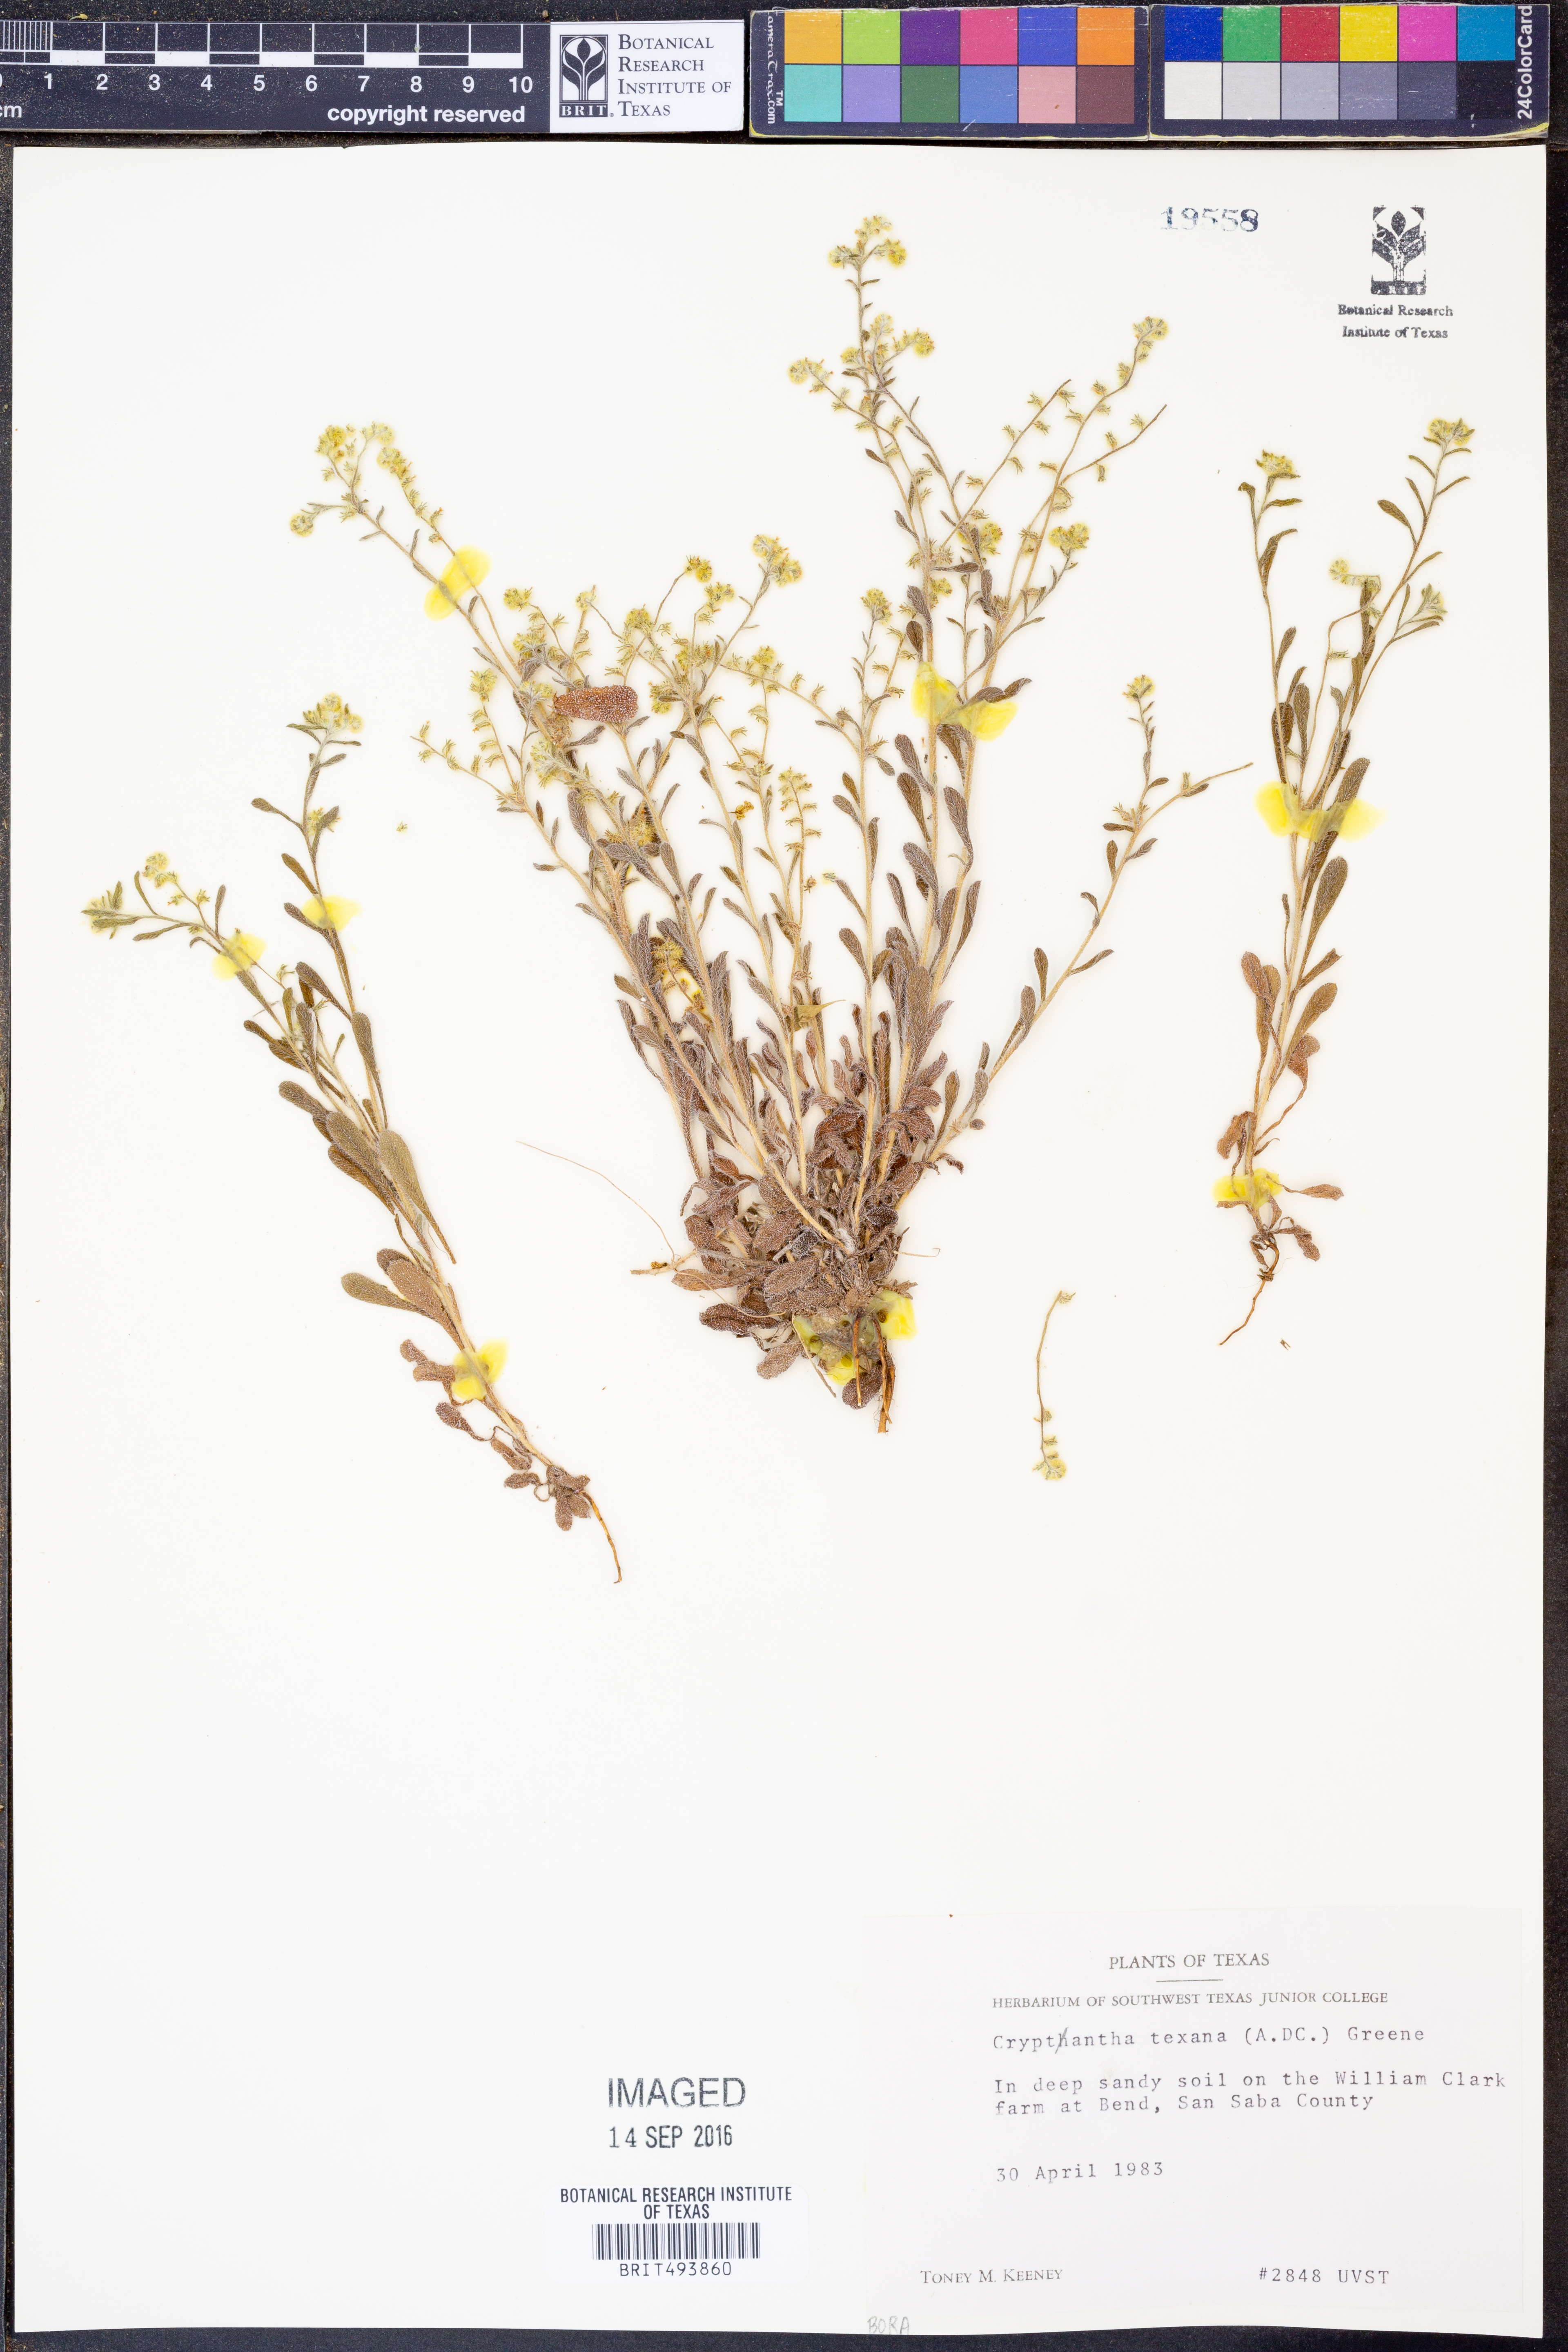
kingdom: Plantae
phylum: Tracheophyta
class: Magnoliopsida
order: Boraginales
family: Boraginaceae
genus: Cryptantha
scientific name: Cryptantha texana
